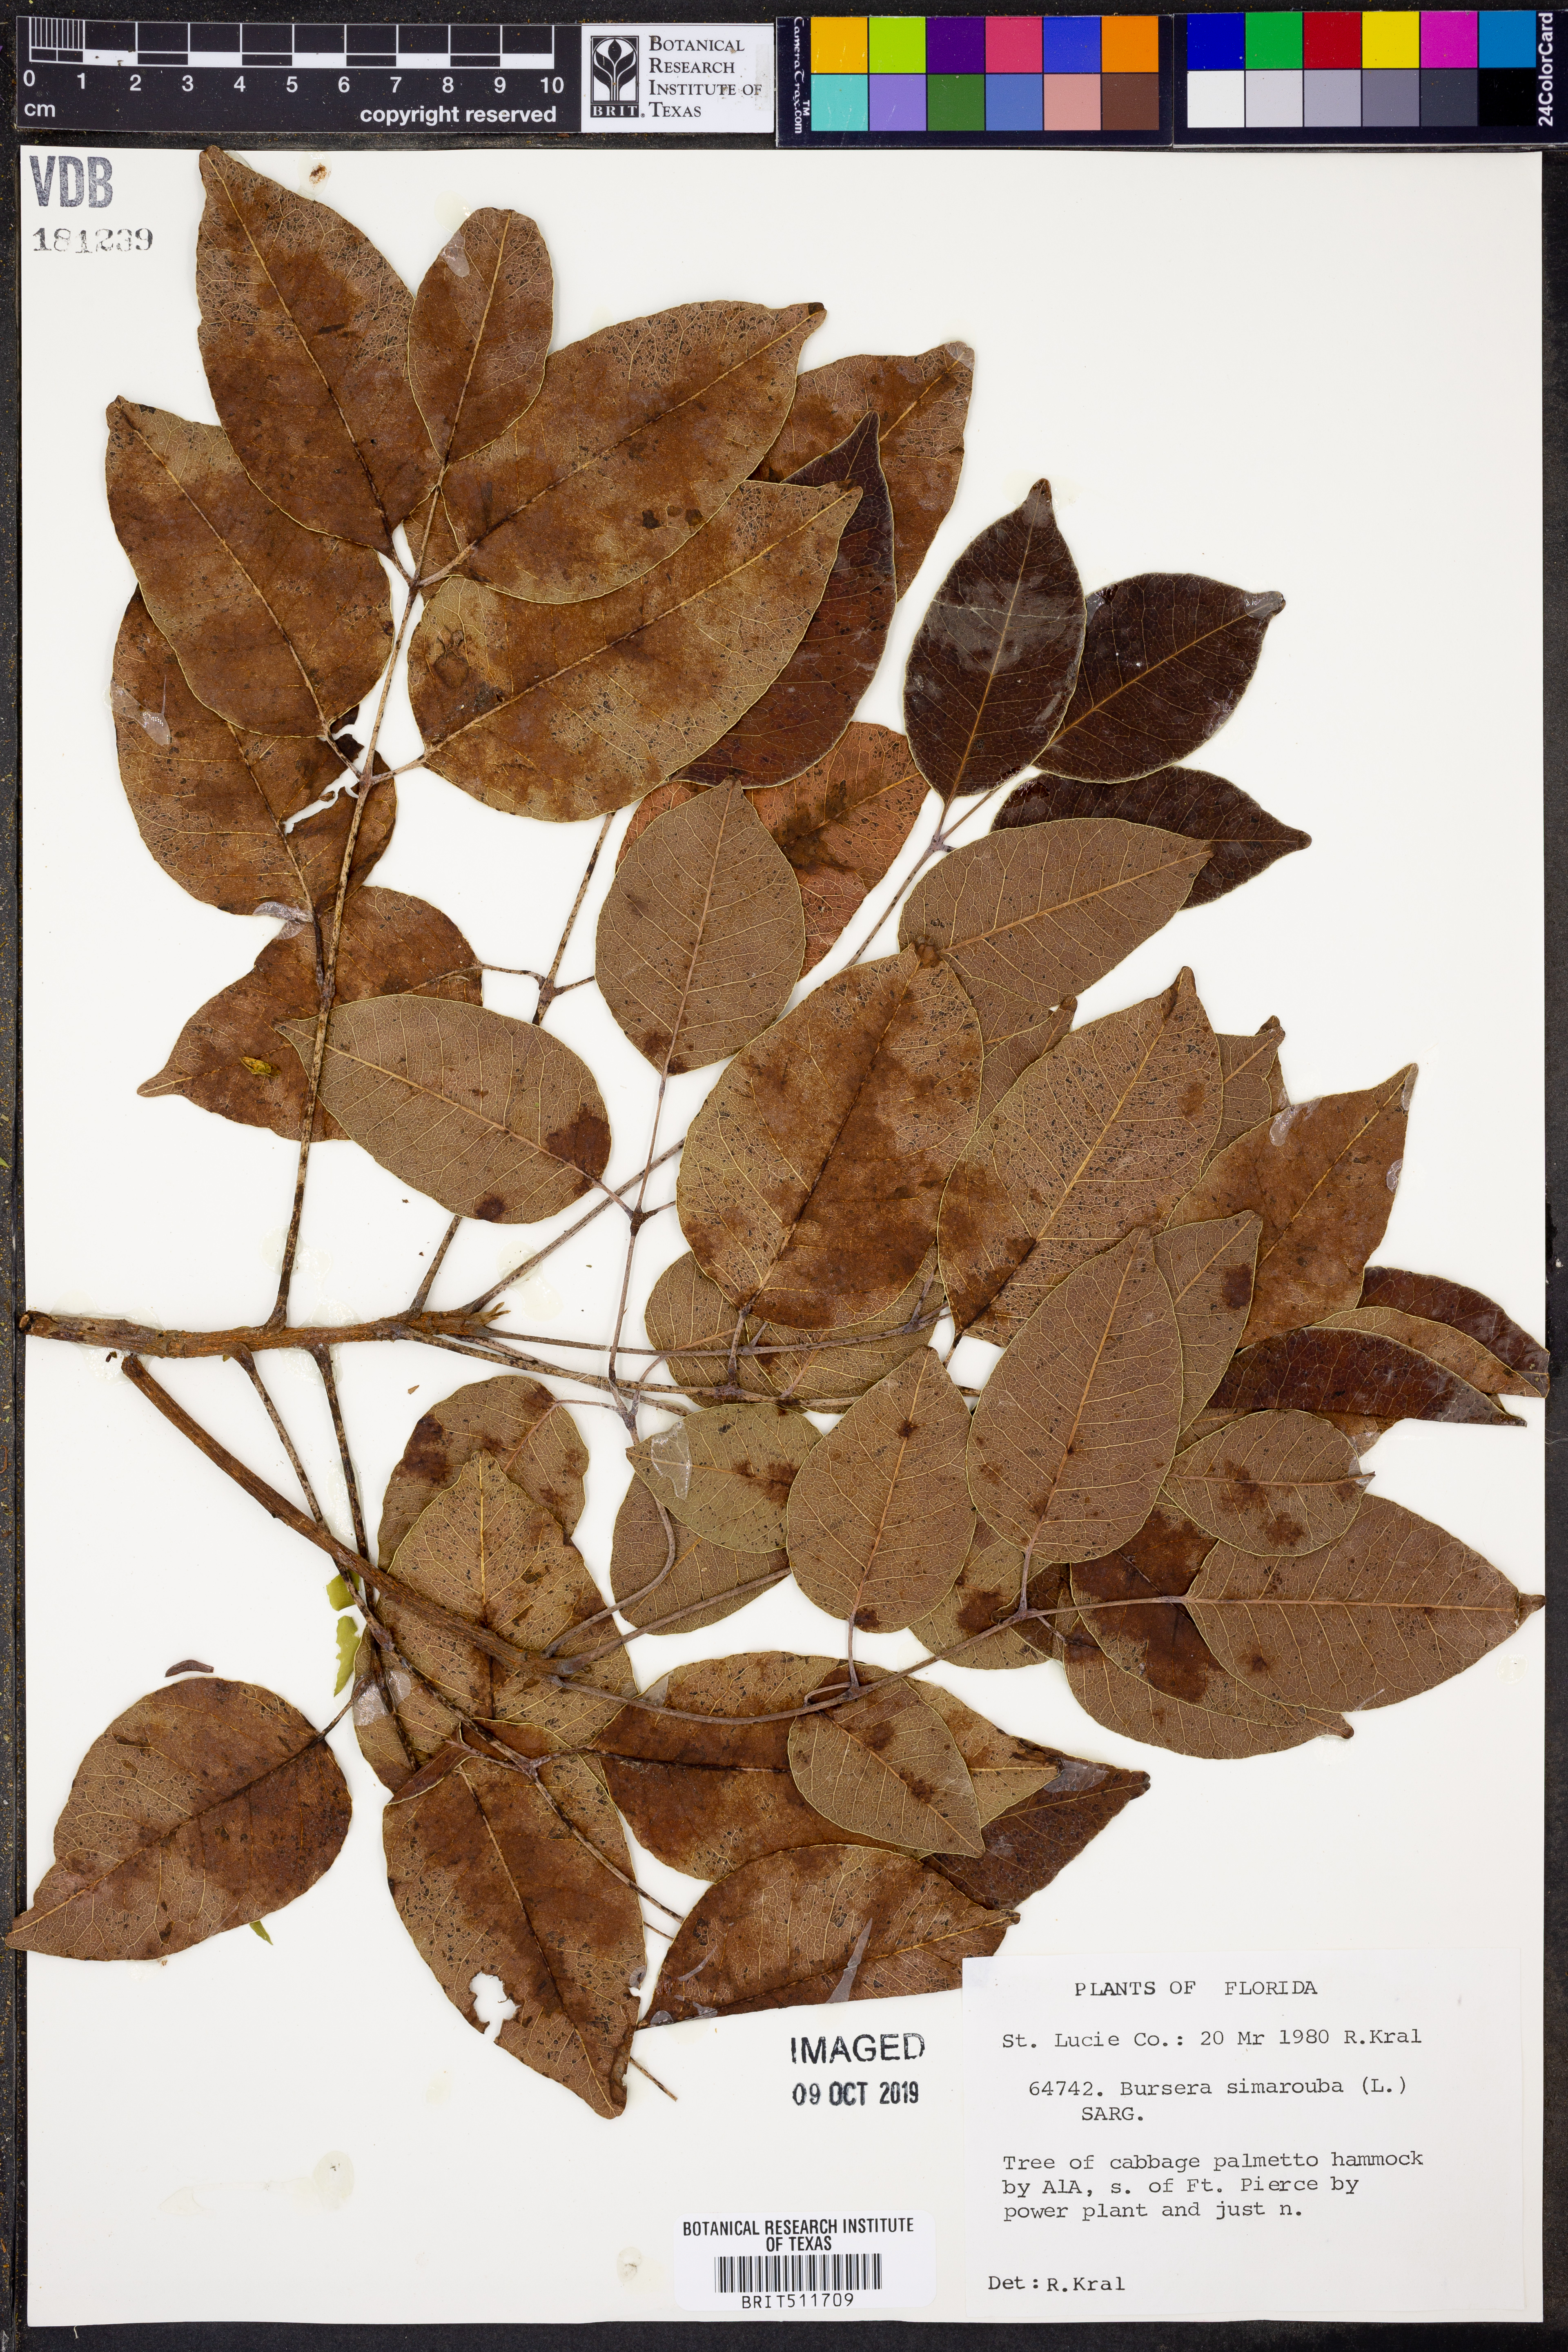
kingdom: Plantae
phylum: Tracheophyta
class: Magnoliopsida
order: Sapindales
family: Burseraceae
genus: Bursera
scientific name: Bursera simaruba
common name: Turpentine tree
